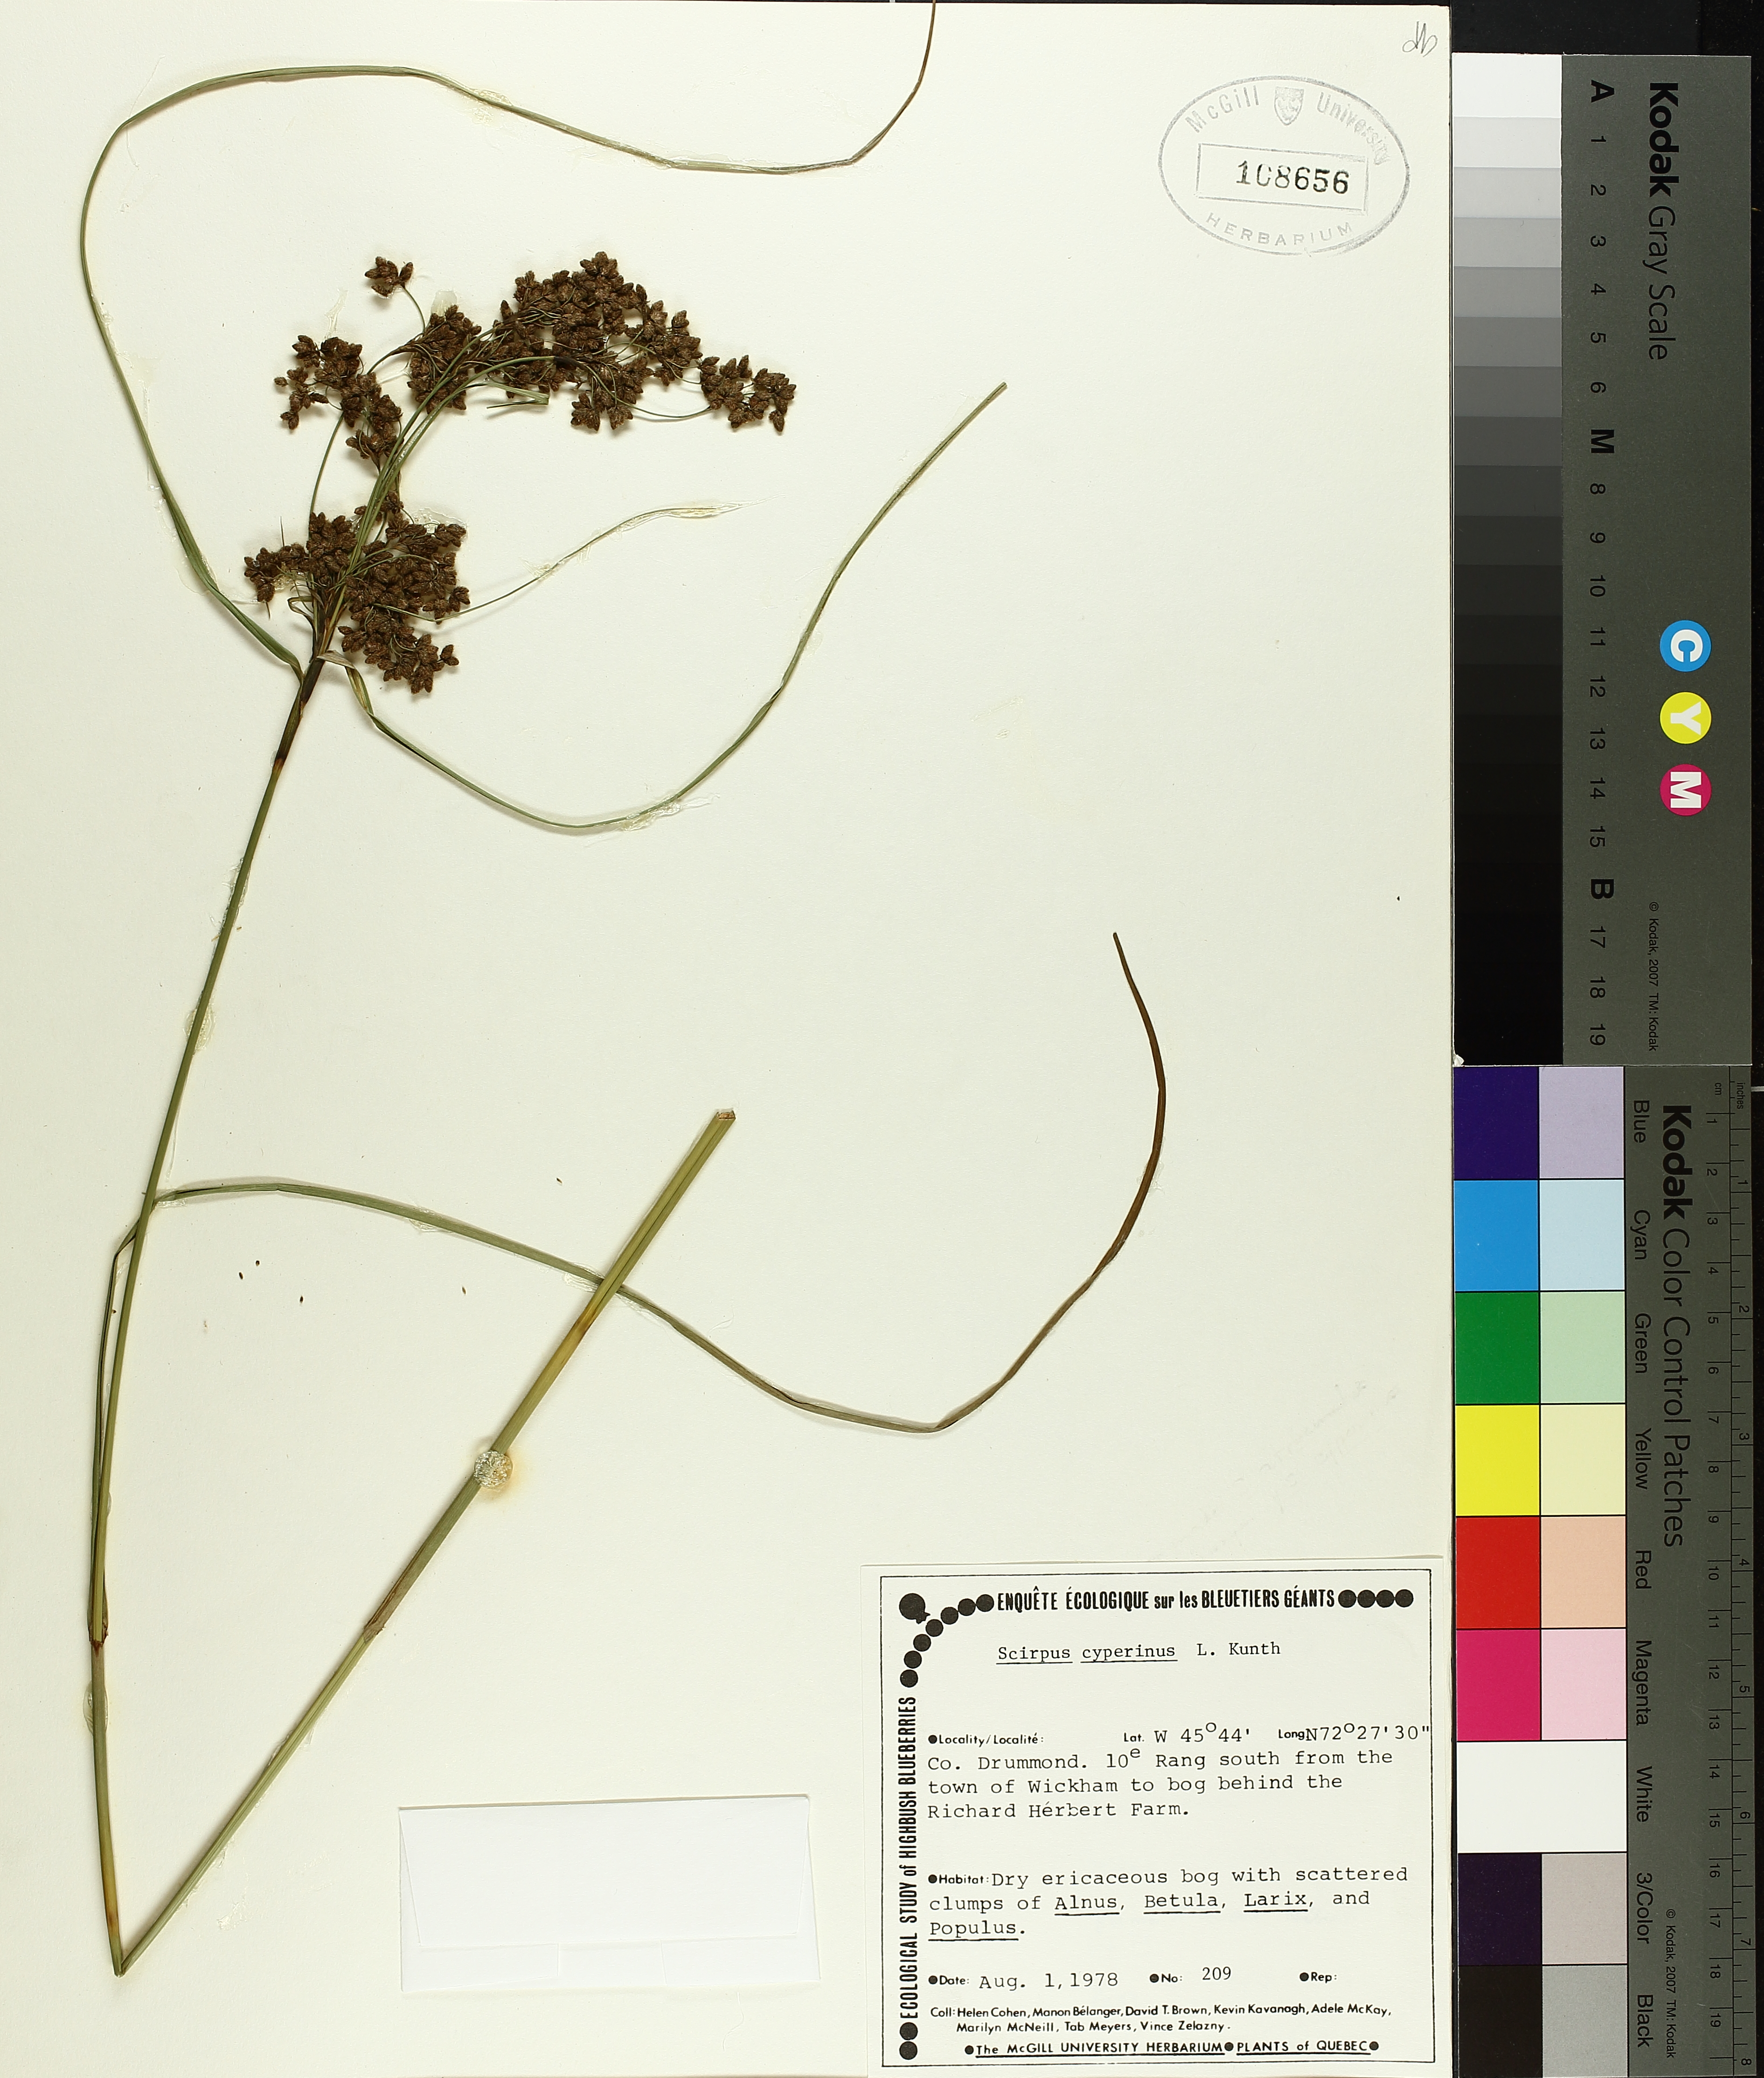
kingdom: Plantae
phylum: Tracheophyta
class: Liliopsida
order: Poales
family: Cyperaceae
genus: Scirpus
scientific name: Scirpus cyperinus
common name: Black-sheathed bulrush
